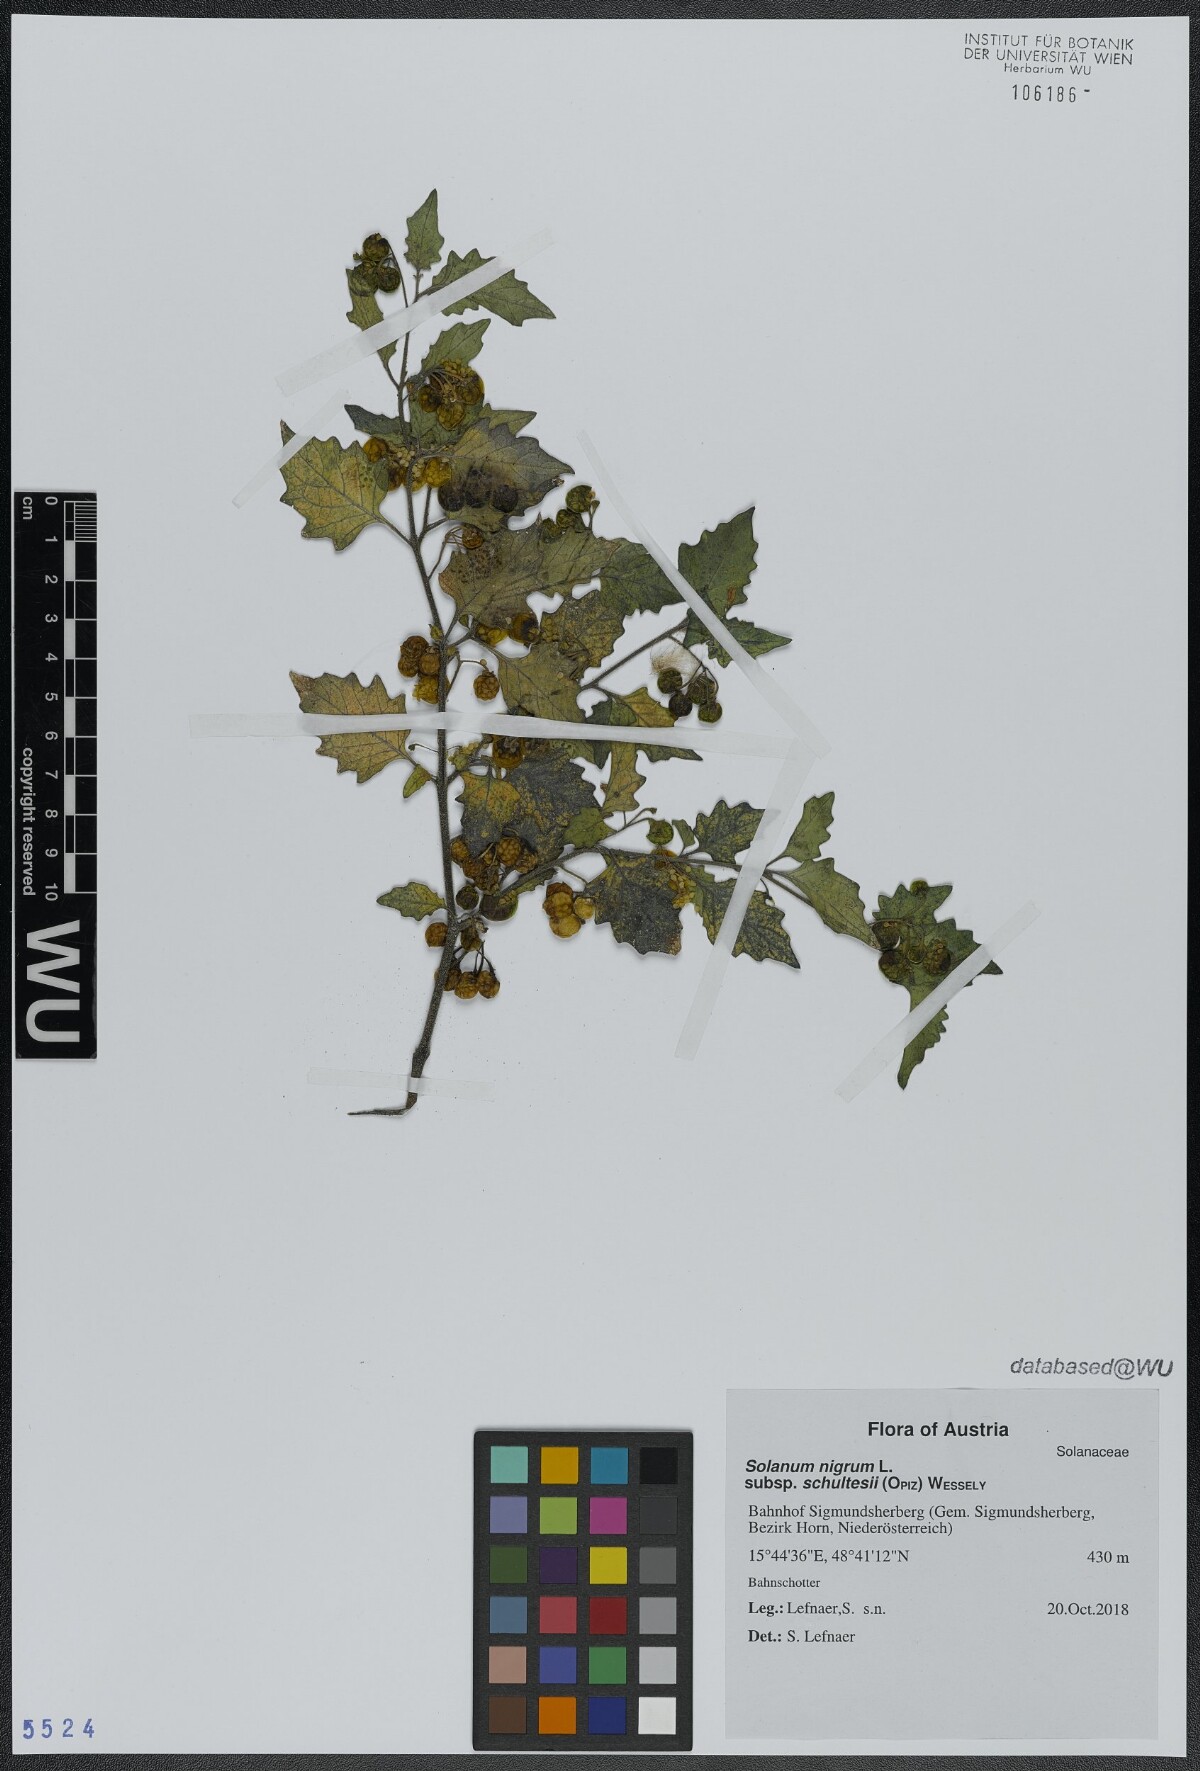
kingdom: Plantae
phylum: Tracheophyta
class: Magnoliopsida
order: Solanales
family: Solanaceae
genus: Solanum
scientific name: Solanum decipiens
